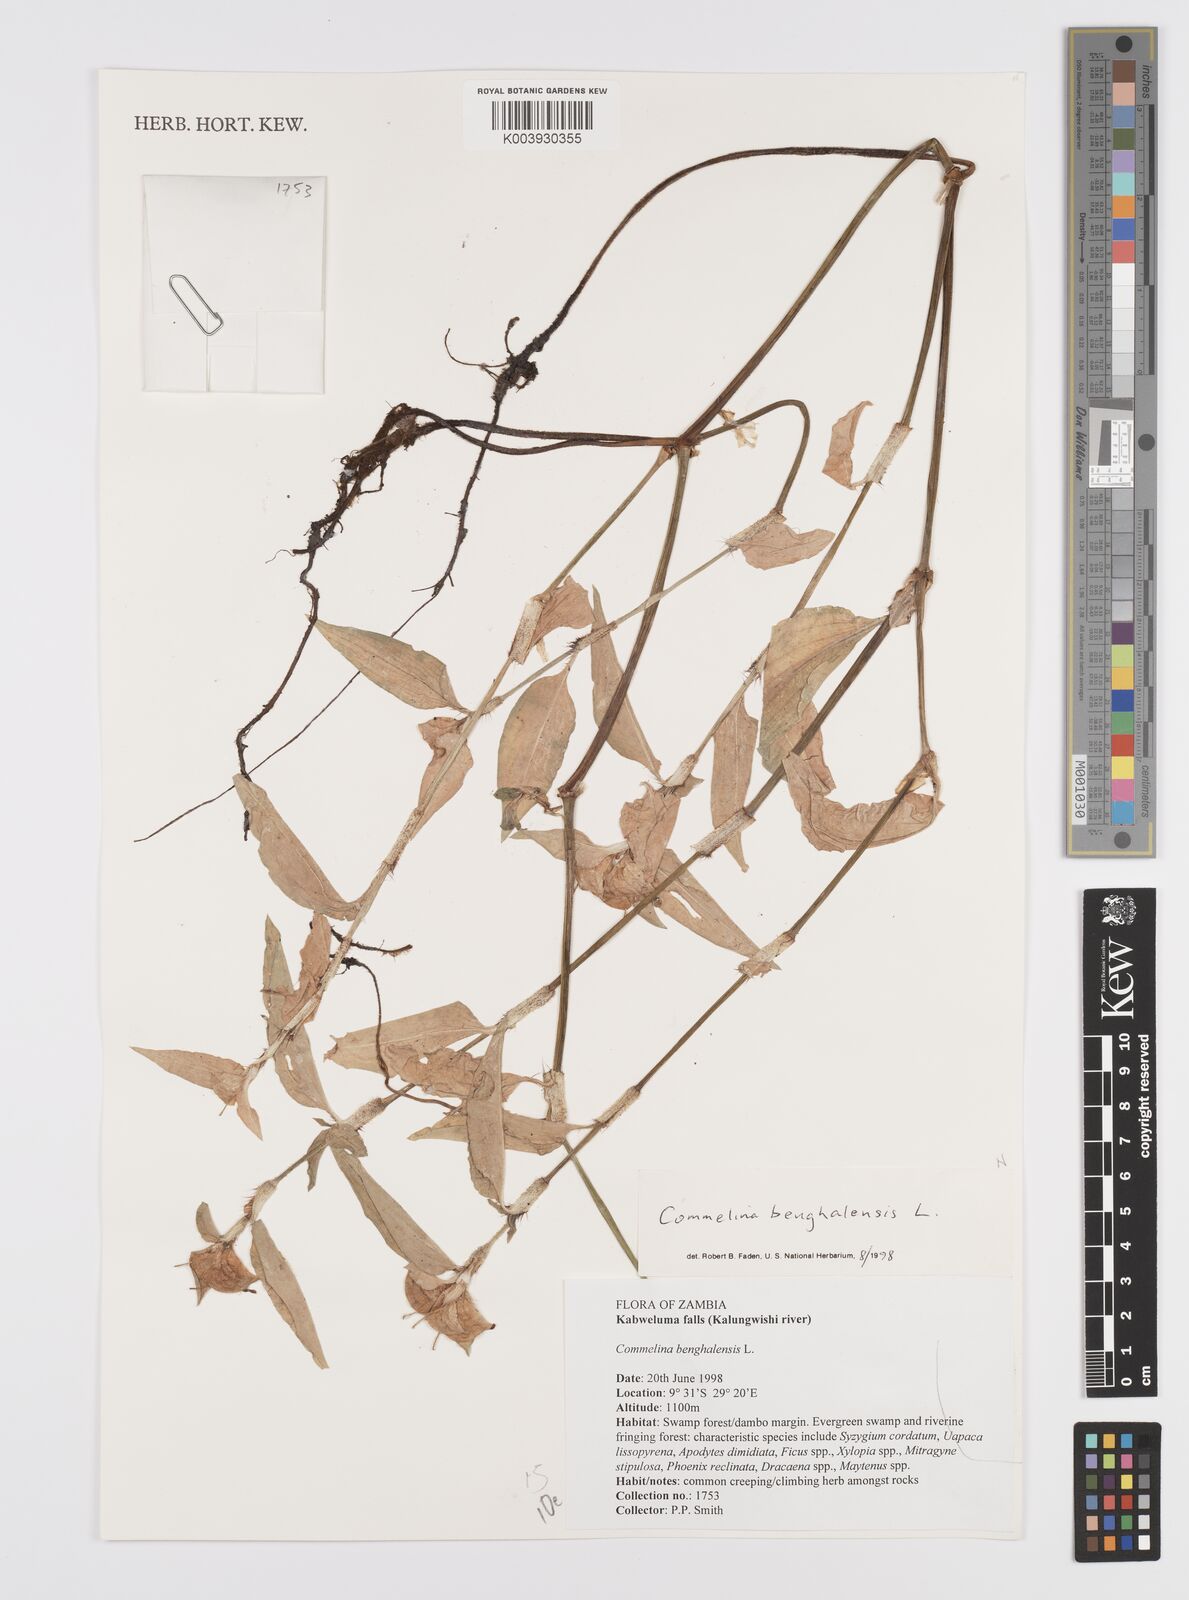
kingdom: Plantae
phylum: Tracheophyta
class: Liliopsida
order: Commelinales
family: Commelinaceae
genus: Commelina
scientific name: Commelina benghalensis
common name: Jio
